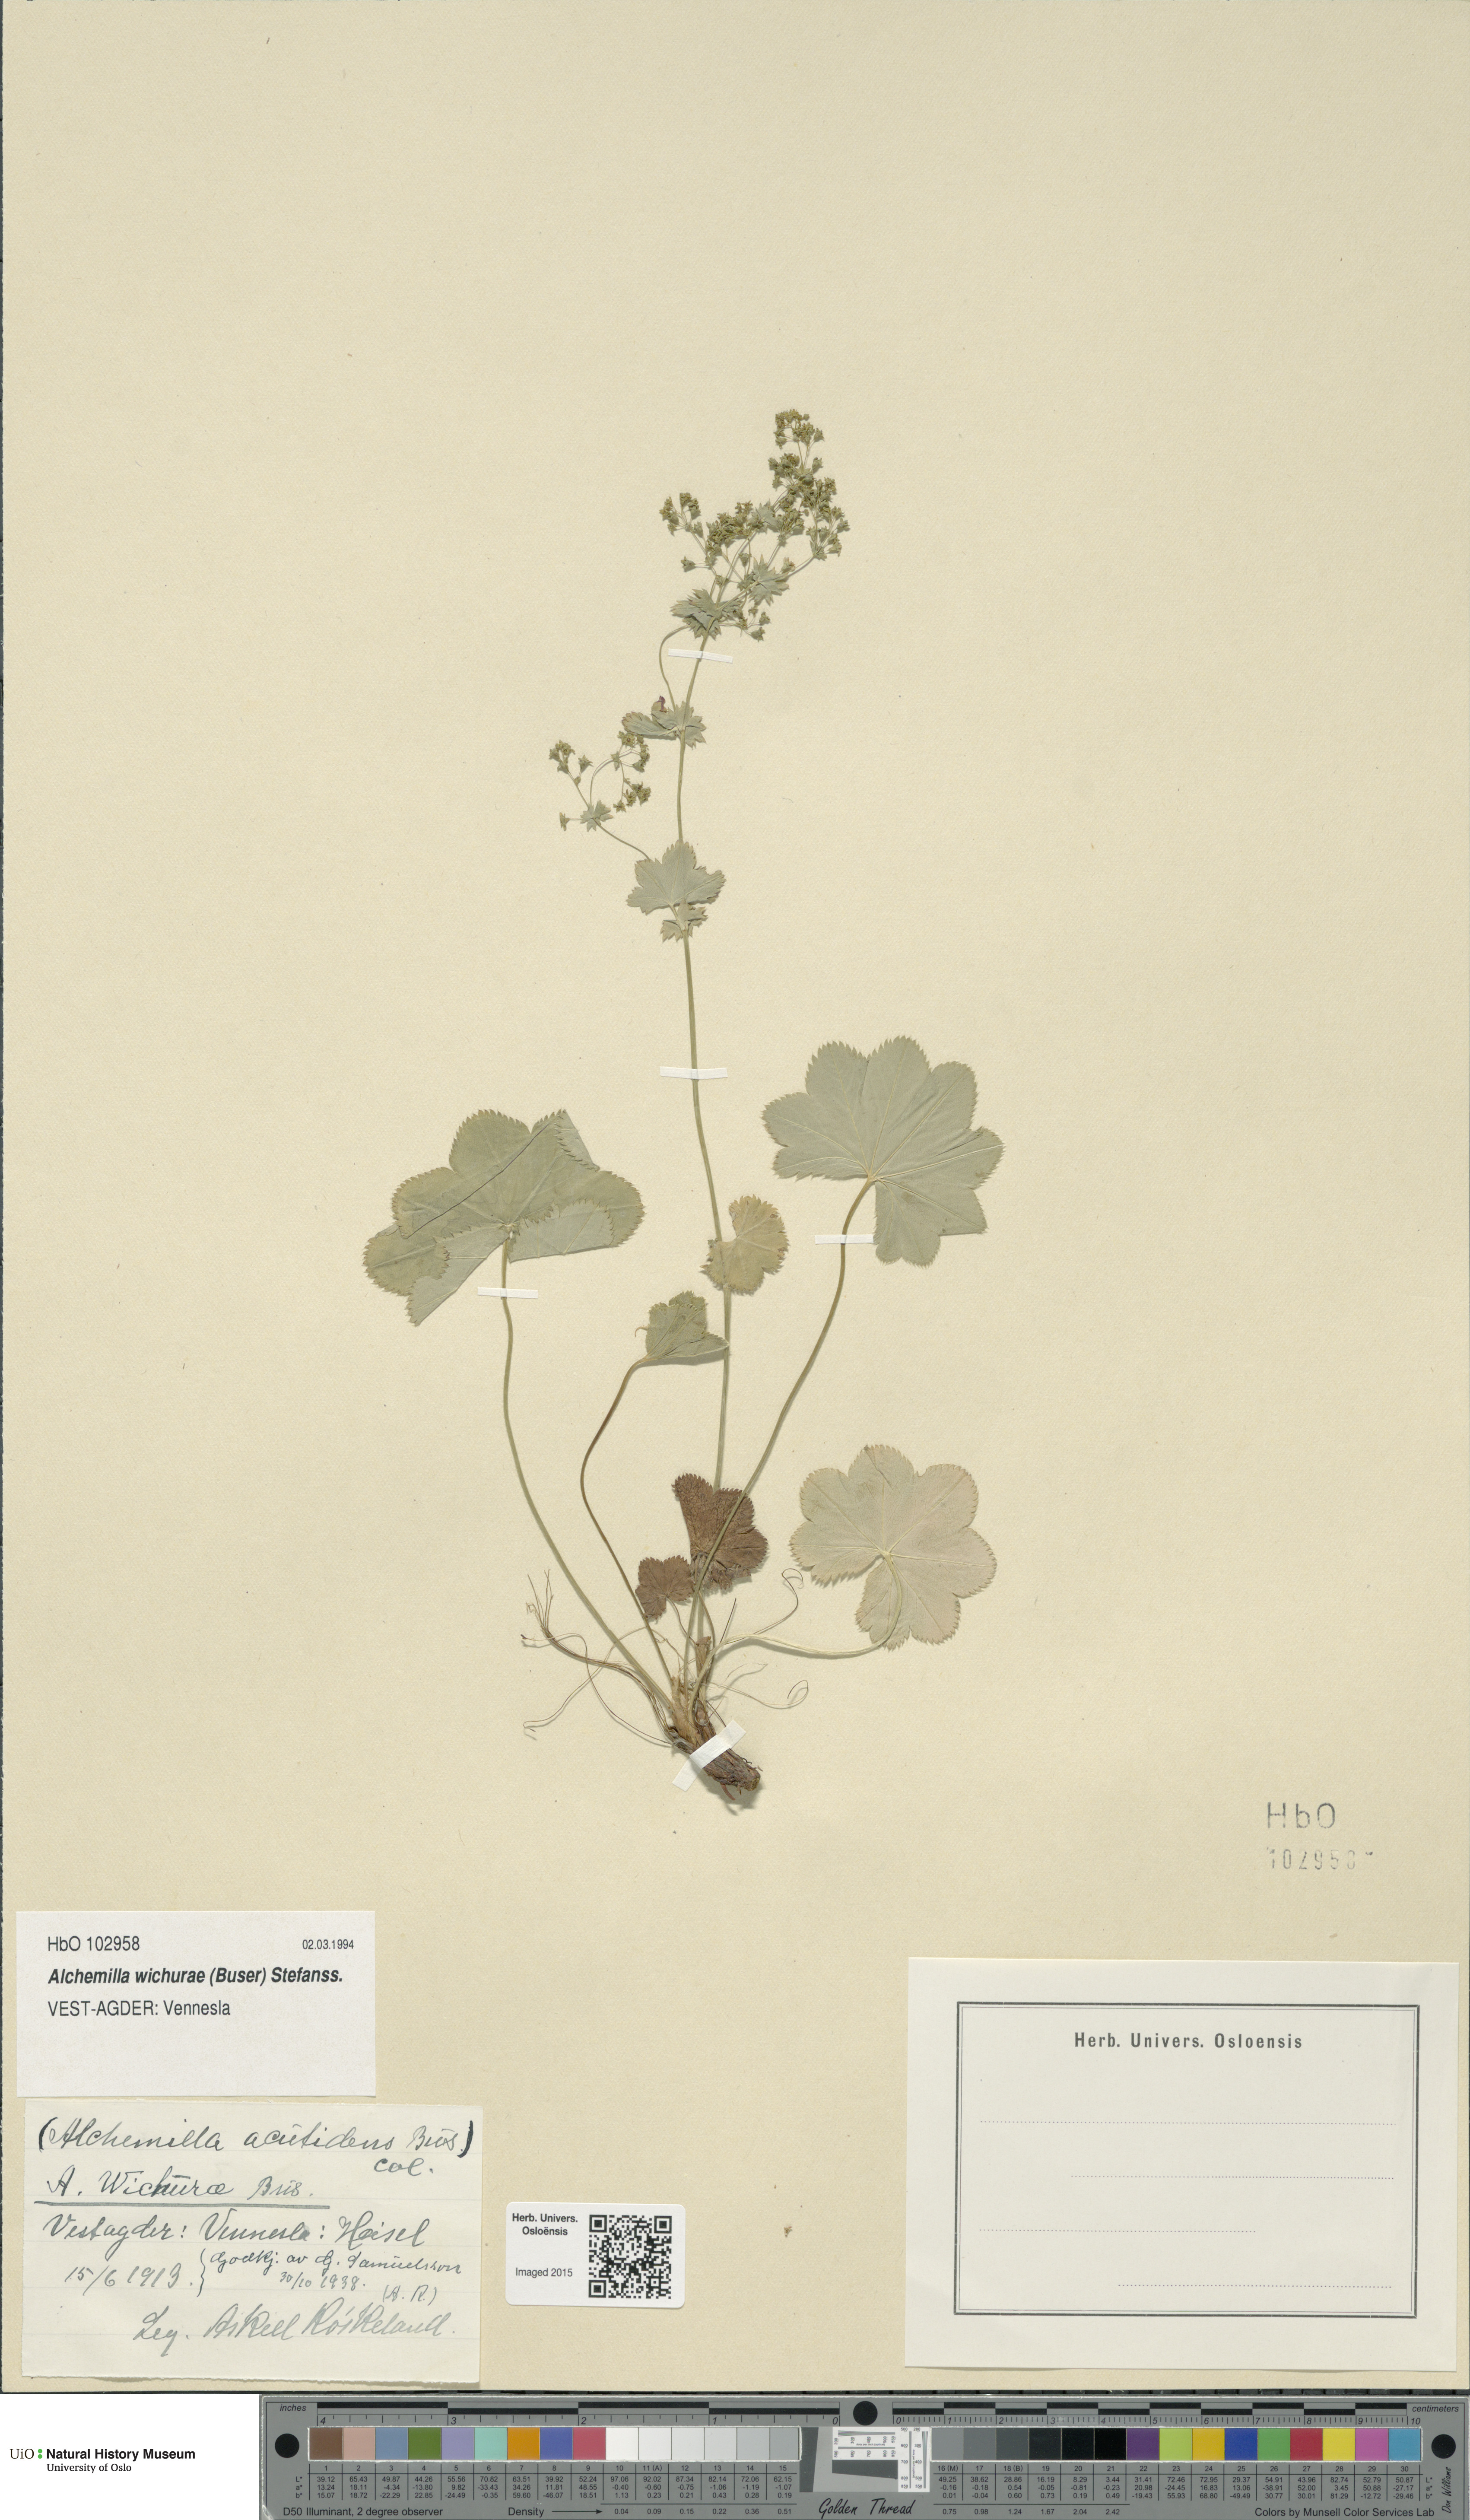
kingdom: Plantae
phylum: Tracheophyta
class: Magnoliopsida
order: Rosales
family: Rosaceae
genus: Alchemilla
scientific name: Alchemilla wichurae
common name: Rock lady's mantle
